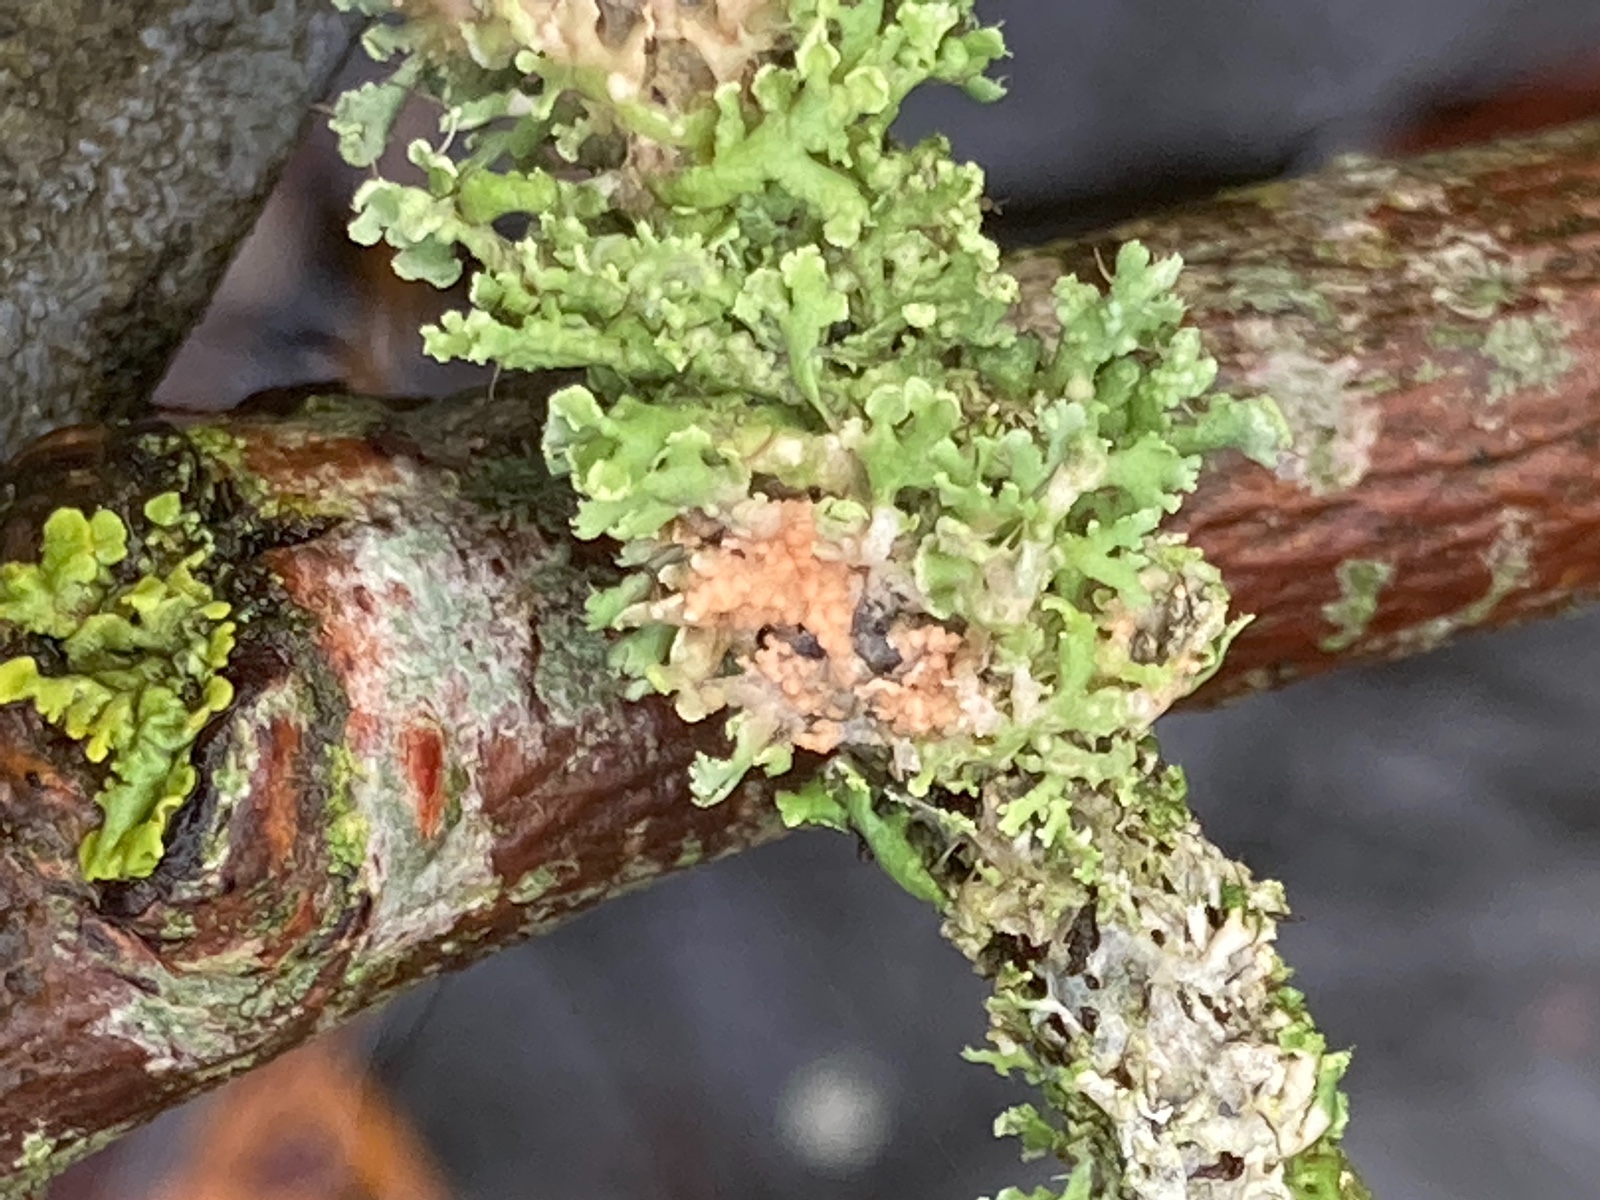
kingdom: Fungi
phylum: Basidiomycota
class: Agaricomycetes
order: Corticiales
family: Corticiaceae
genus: Erythricium
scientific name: Erythricium aurantiacum
